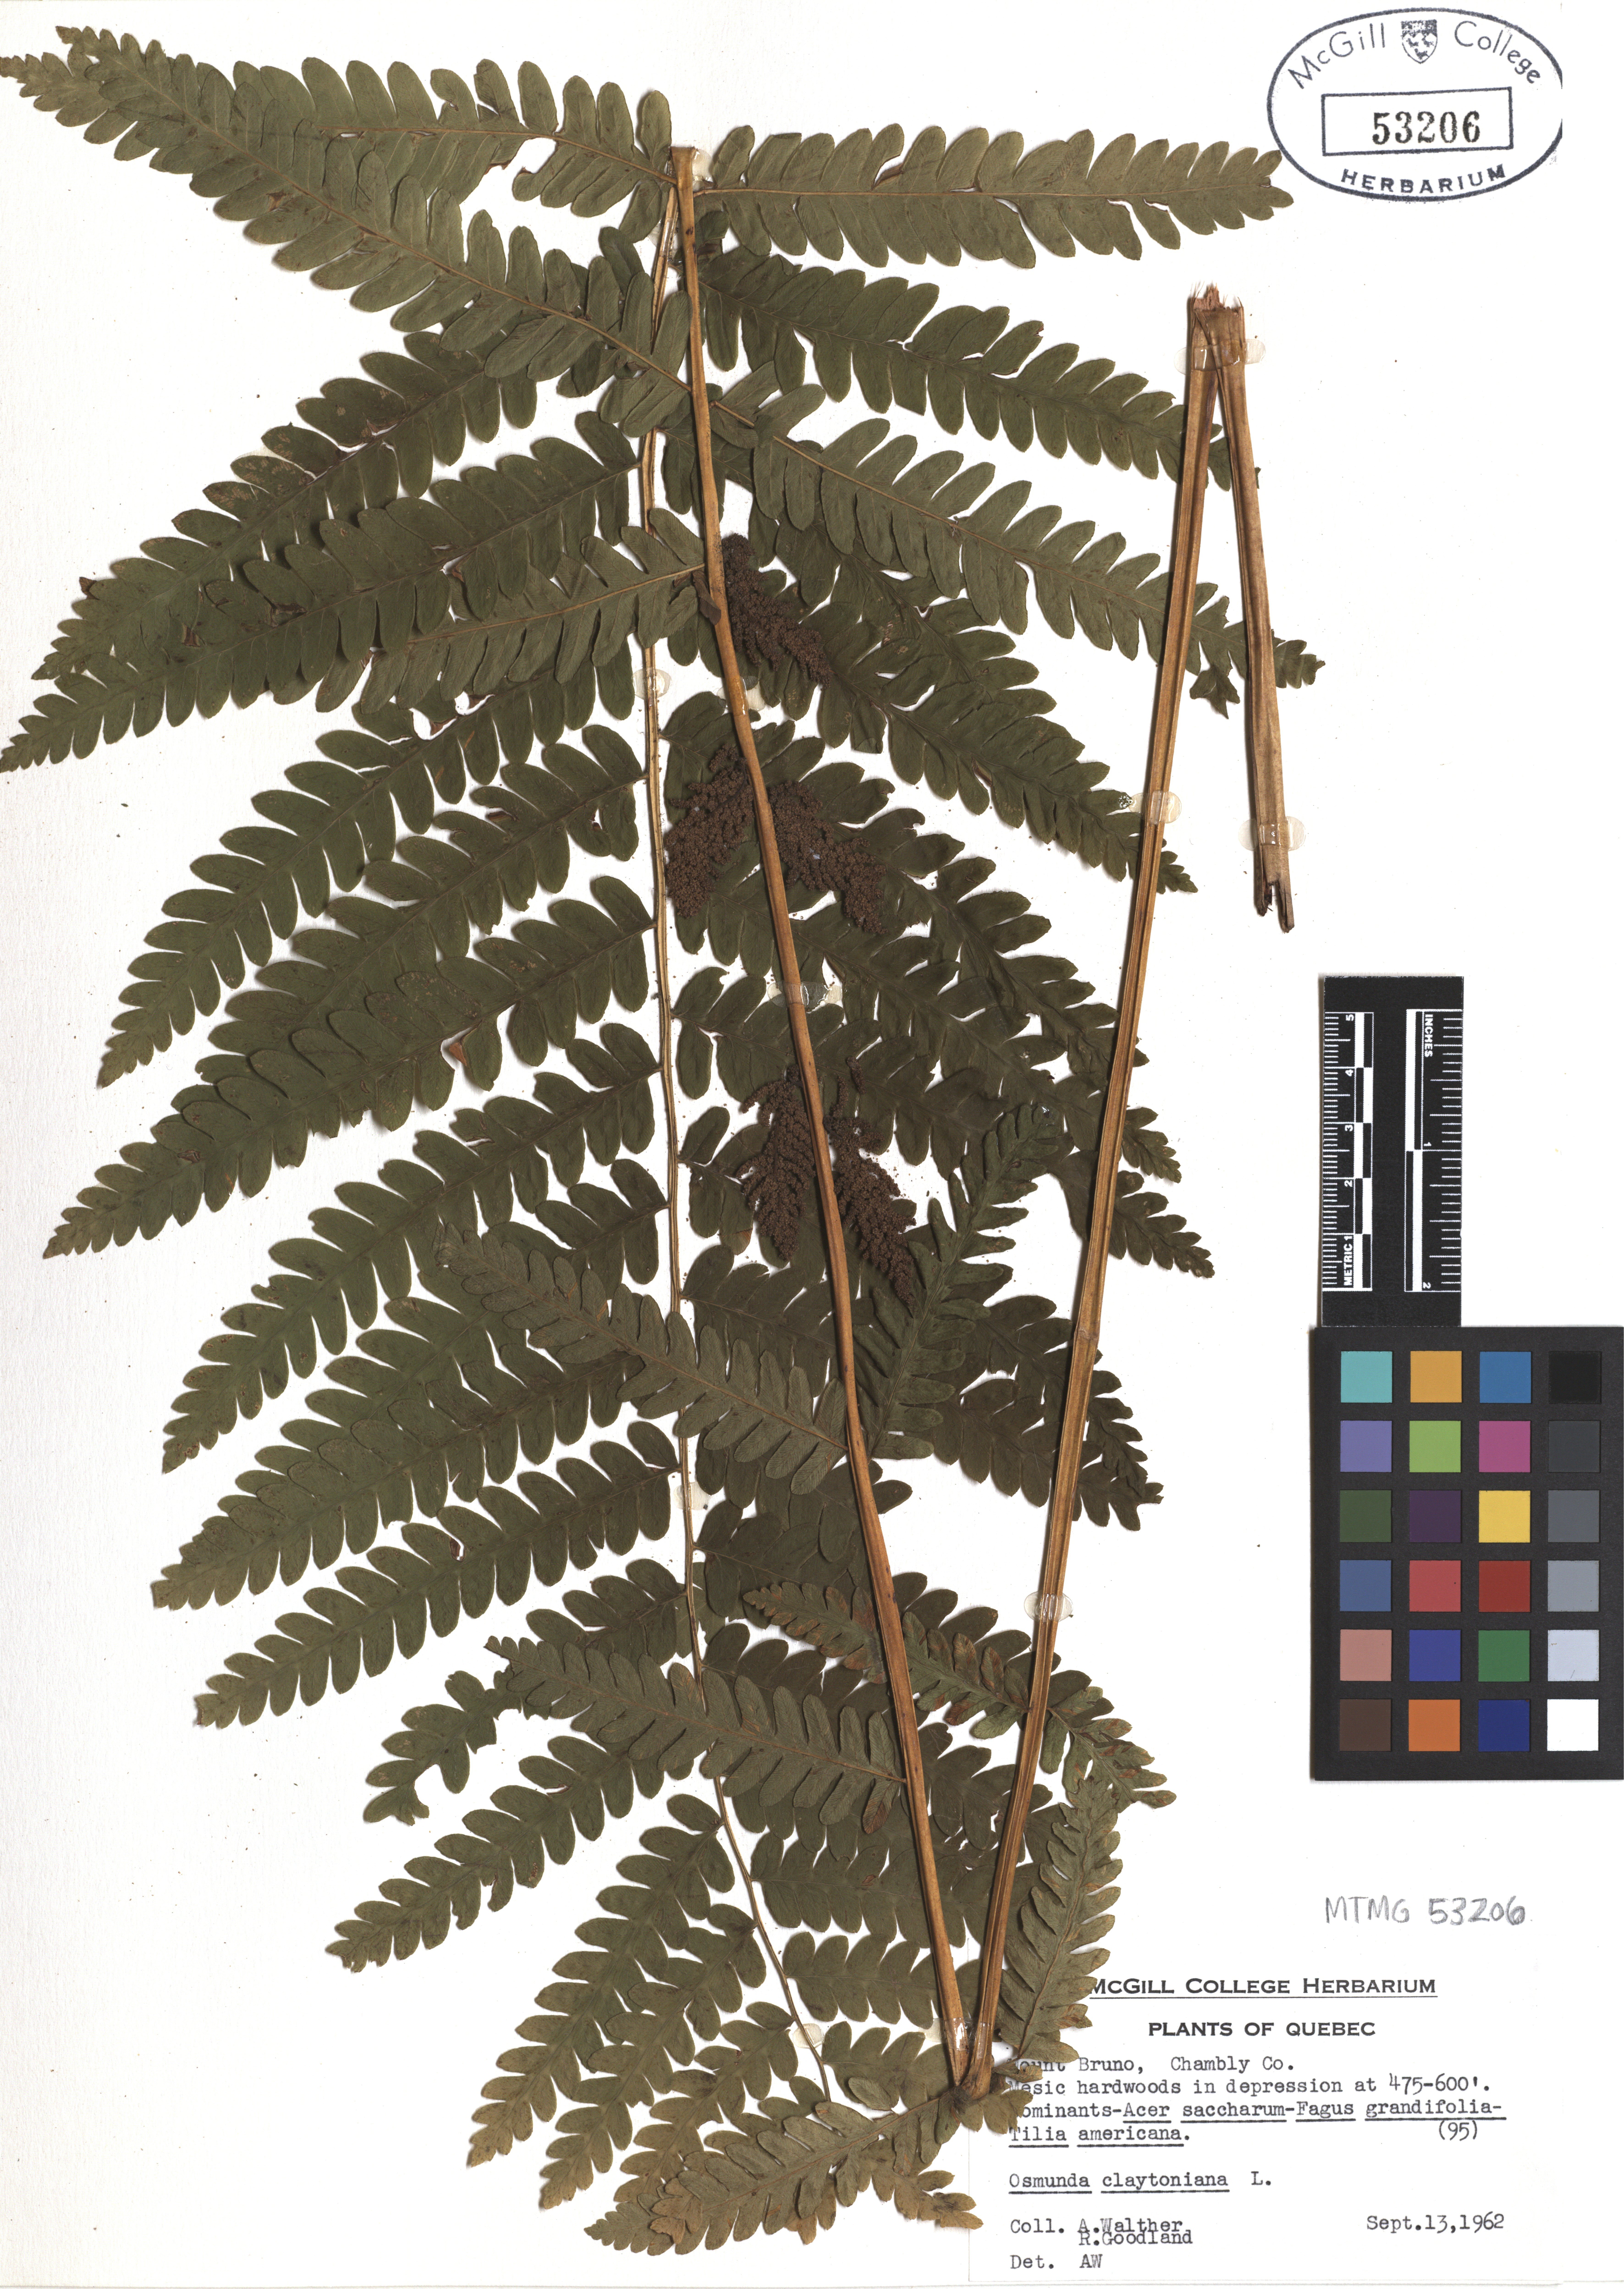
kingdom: Plantae
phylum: Tracheophyta
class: Polypodiopsida
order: Osmundales
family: Osmundaceae
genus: Claytosmunda
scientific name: Claytosmunda claytoniana
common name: Clayton's fern
